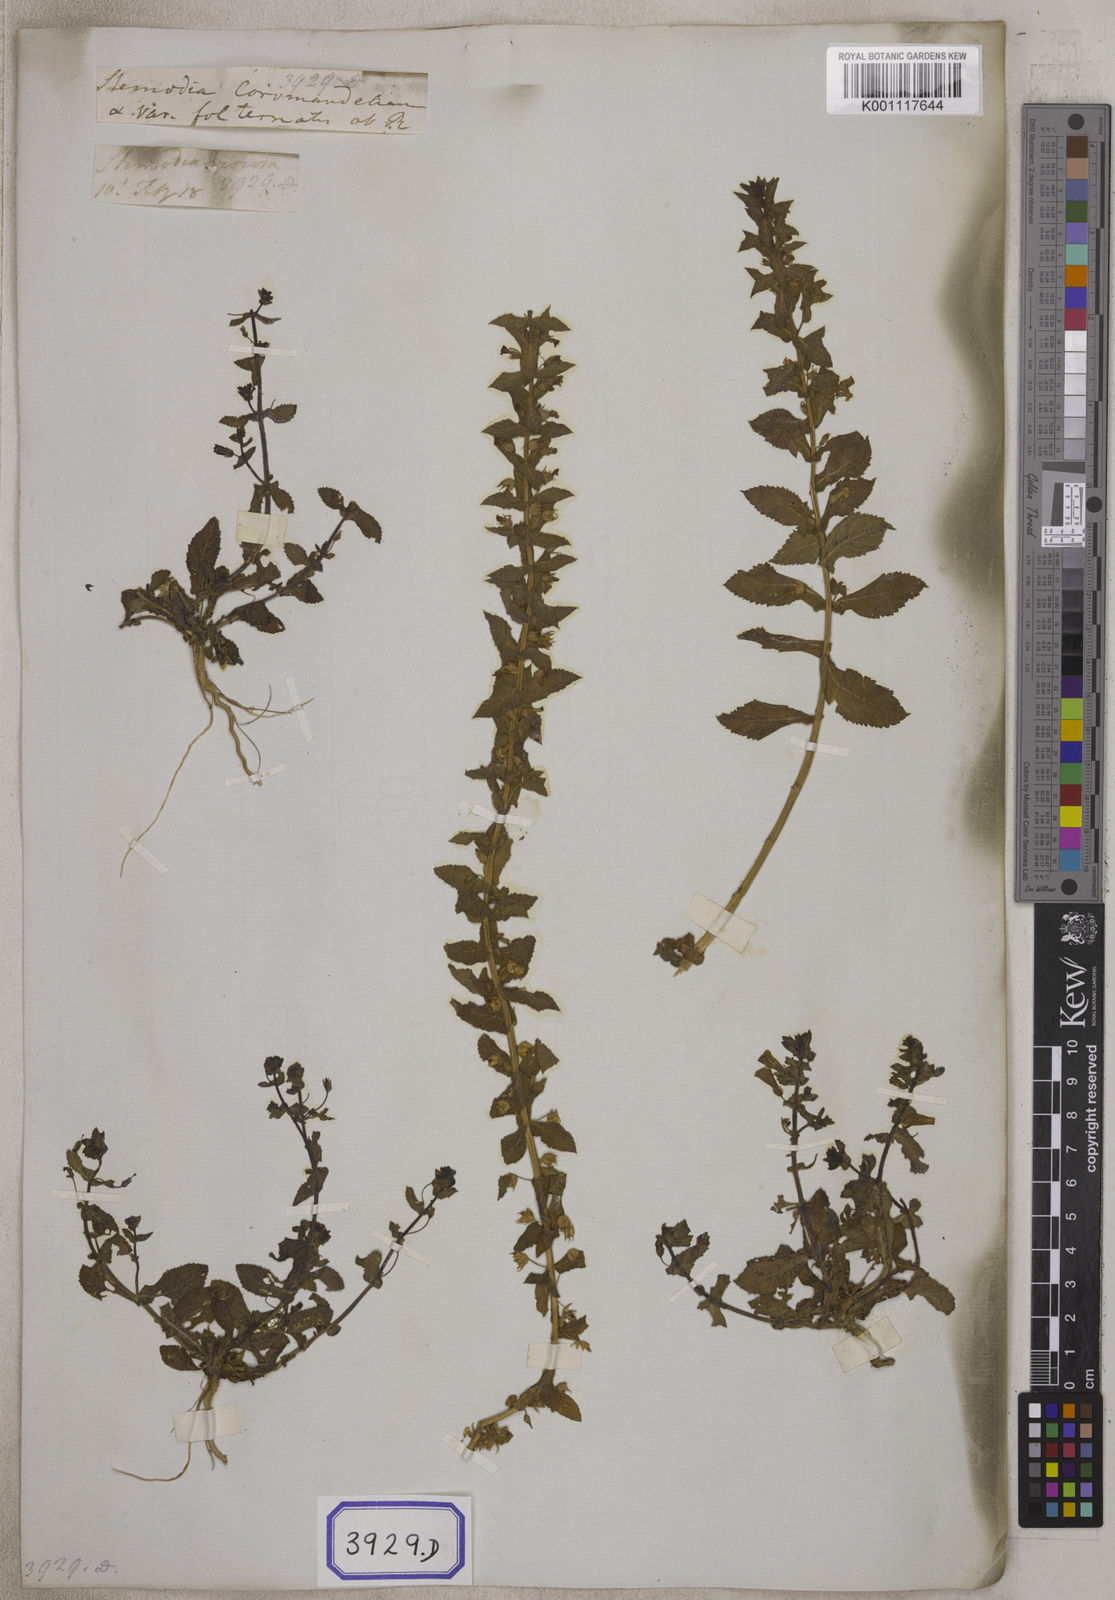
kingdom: Plantae
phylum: Tracheophyta
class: Magnoliopsida
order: Lamiales
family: Plantaginaceae
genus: Stemodia
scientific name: Stemodia viscosa
